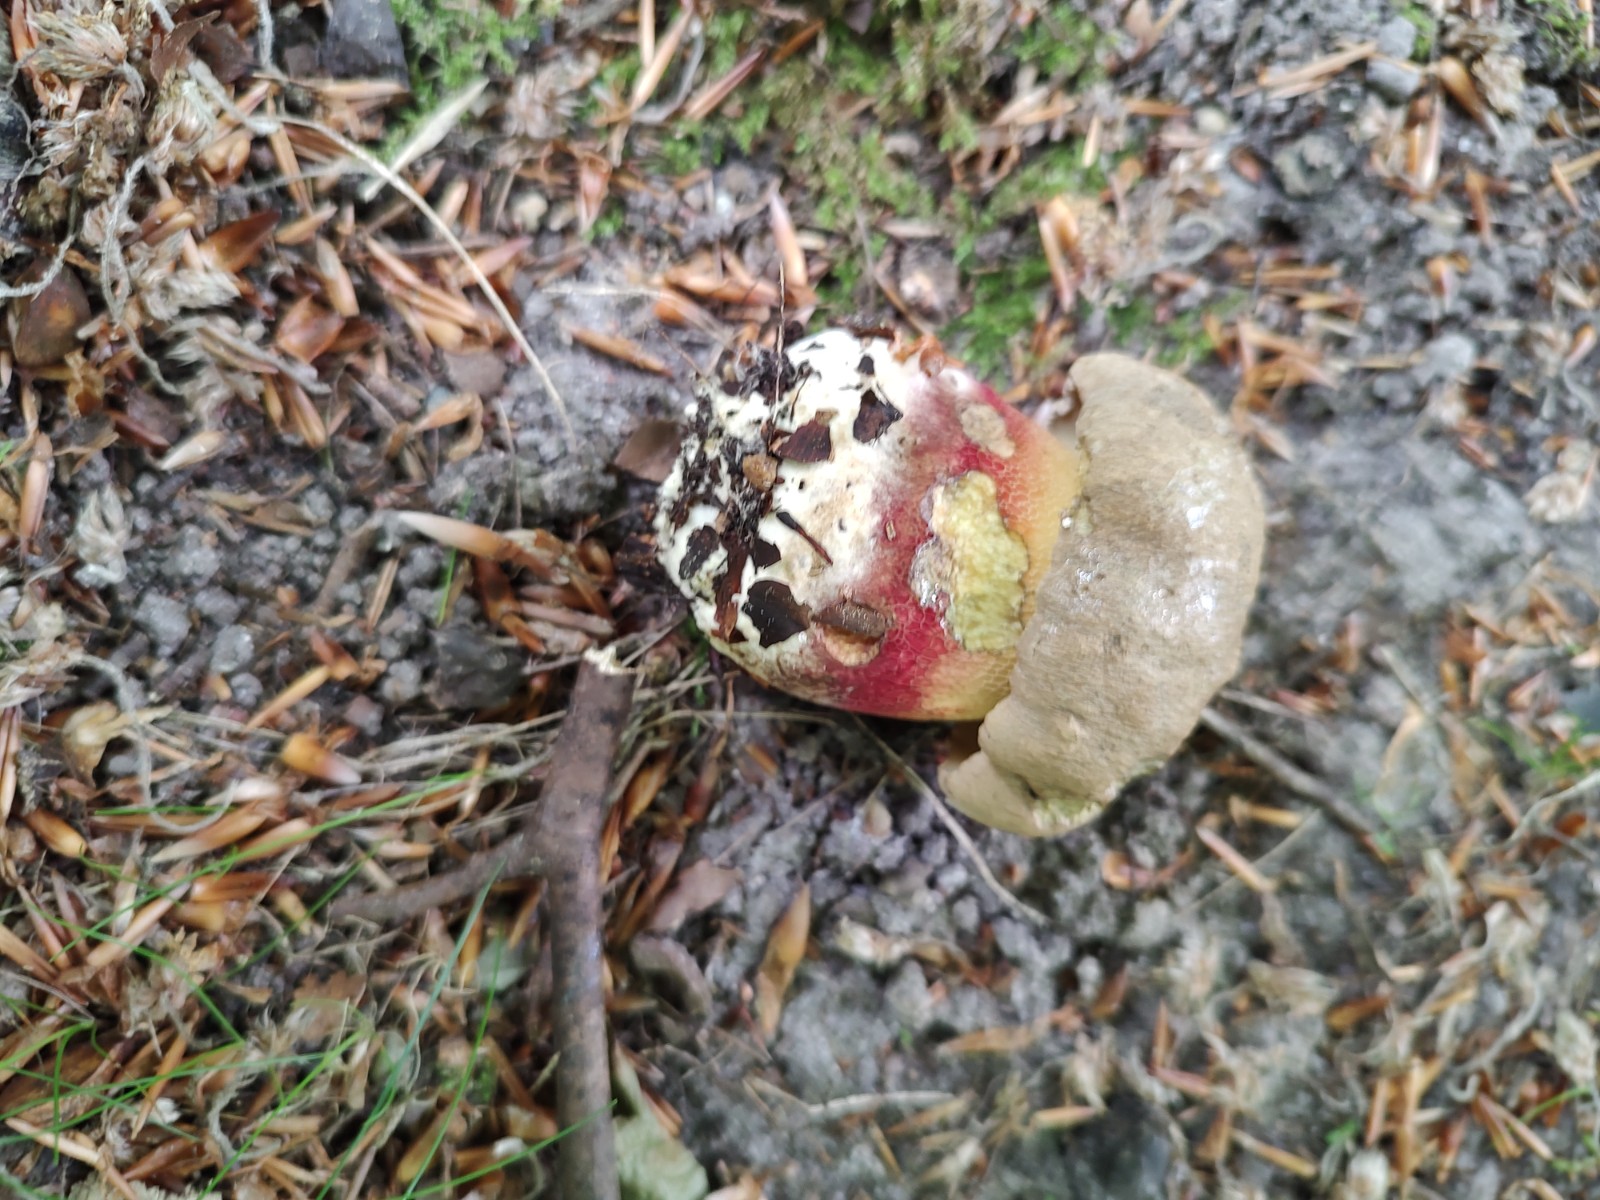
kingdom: Fungi
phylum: Basidiomycota
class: Agaricomycetes
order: Boletales
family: Boletaceae
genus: Caloboletus
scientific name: Caloboletus calopus
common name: skønfodet rørhat
